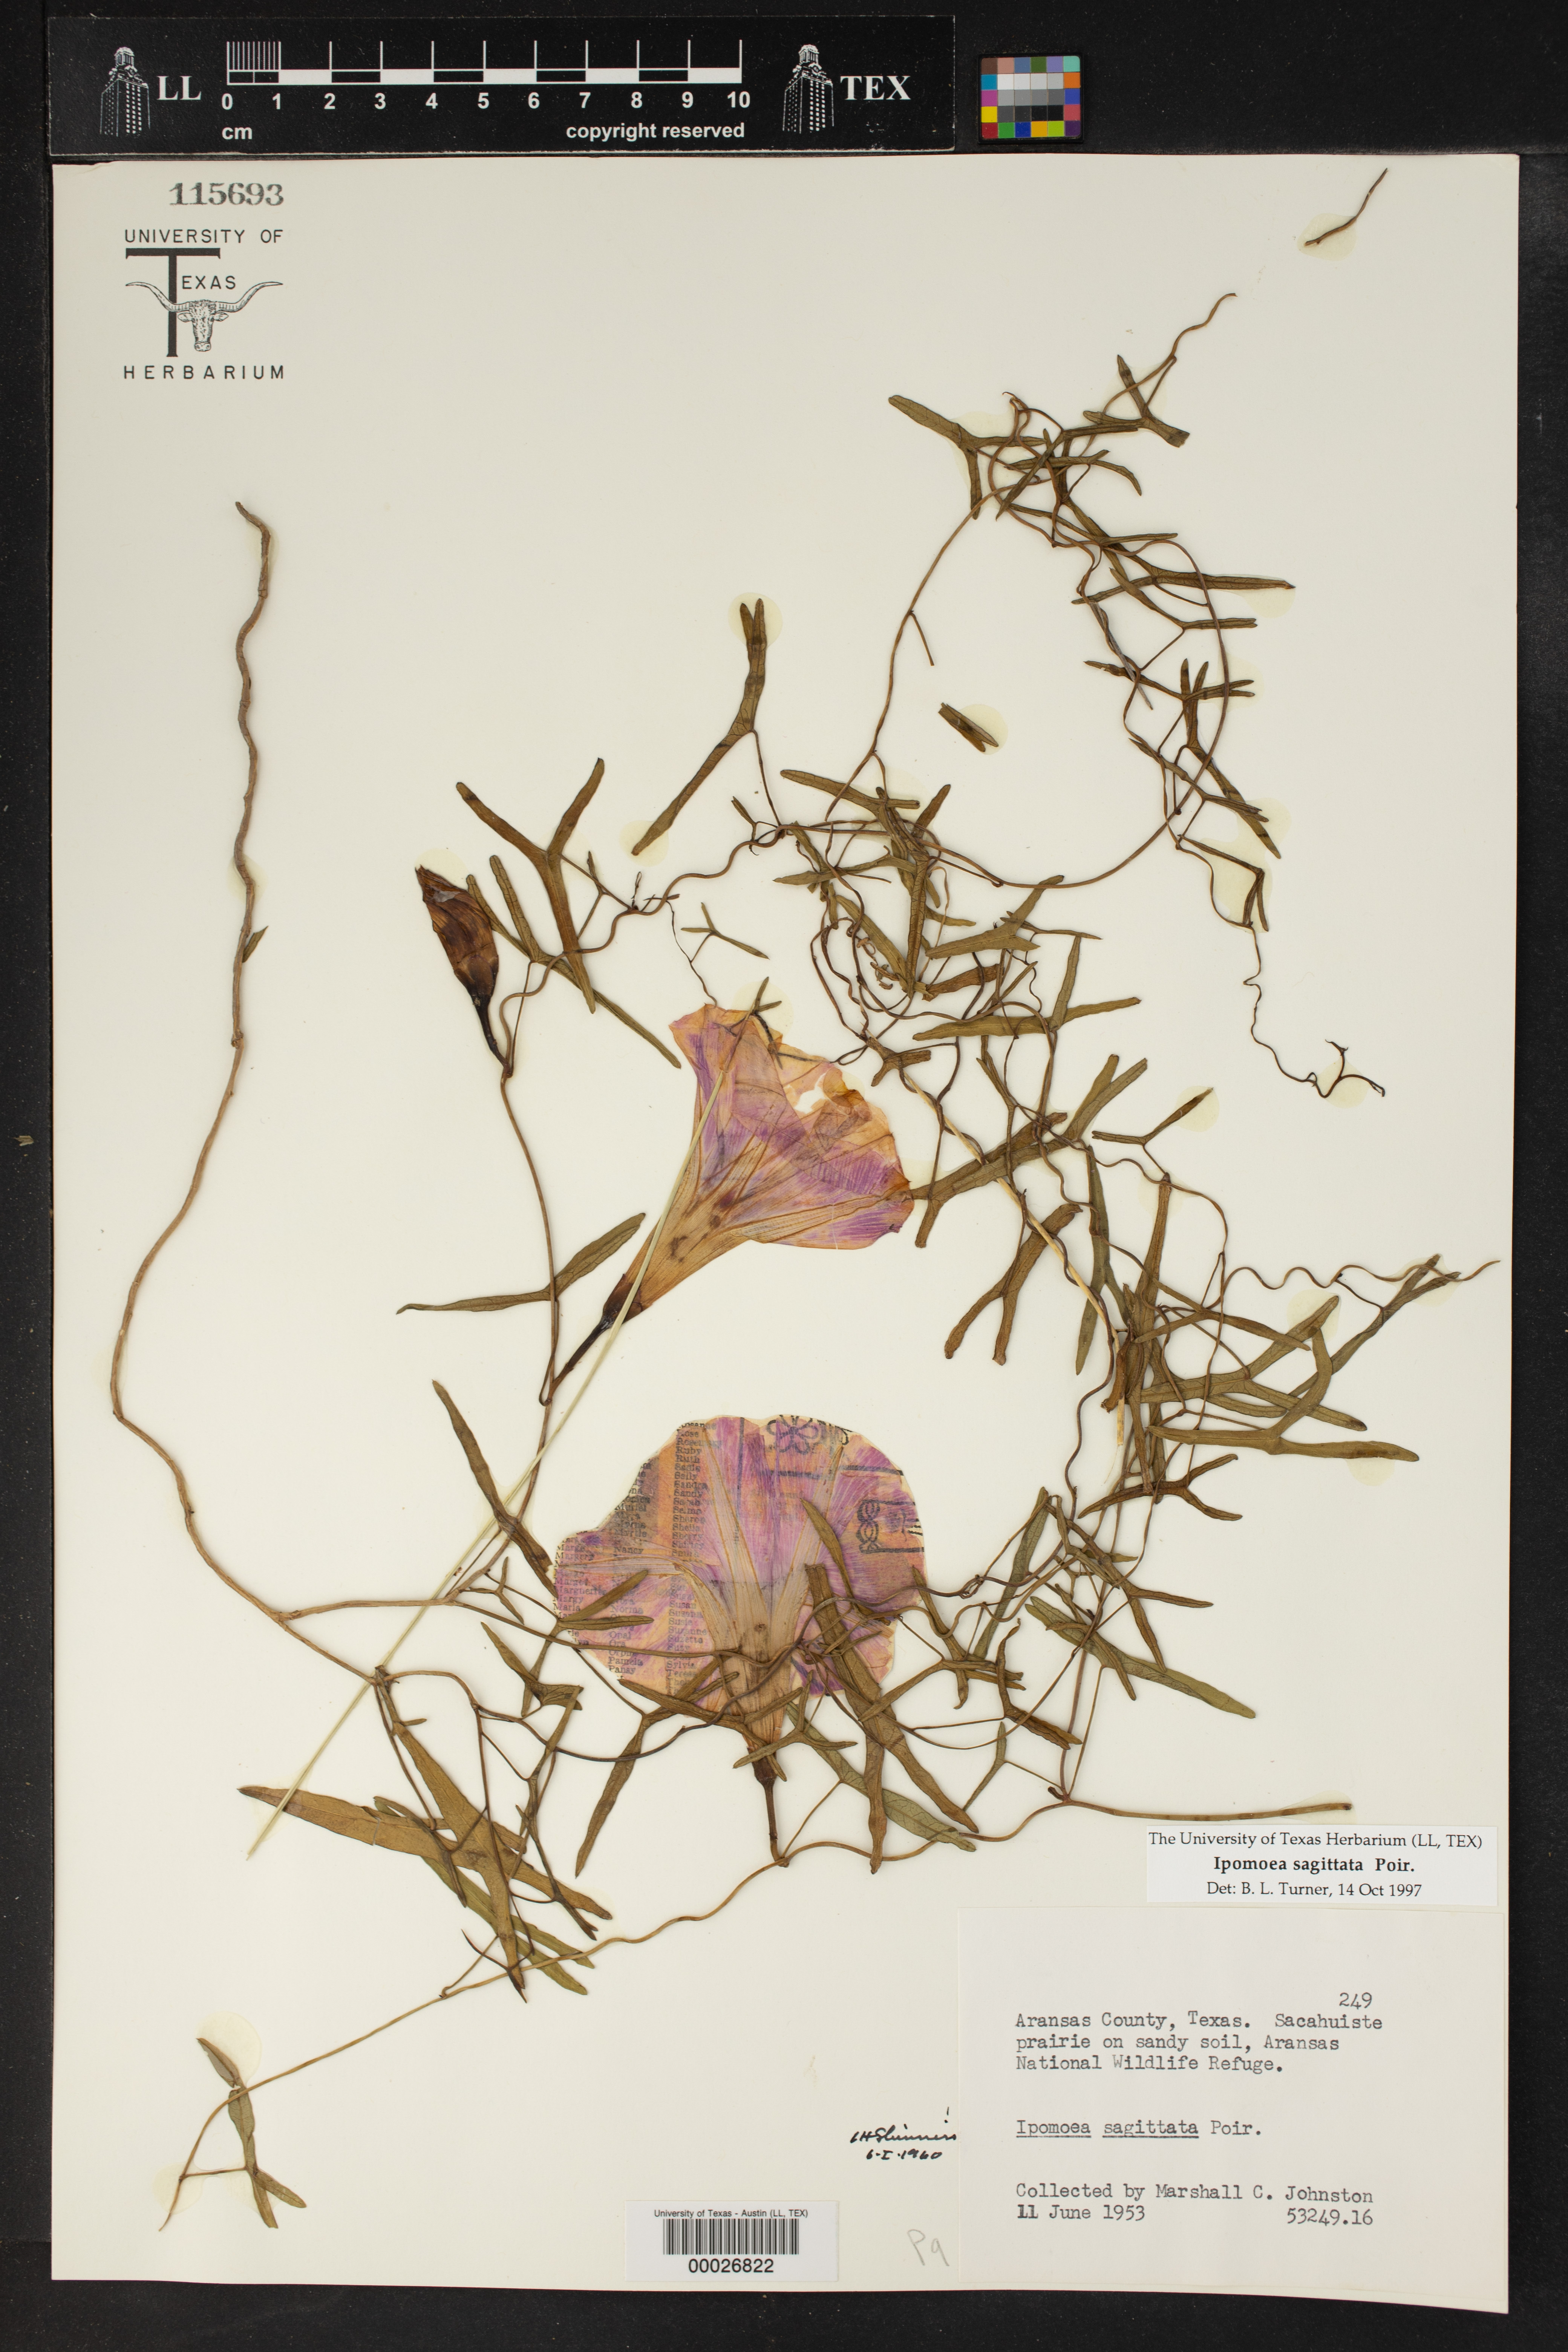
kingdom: Plantae
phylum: Tracheophyta
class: Magnoliopsida
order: Solanales
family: Convolvulaceae
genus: Ipomoea
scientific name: Ipomoea sagittata
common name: Saltmarsh morning glory
